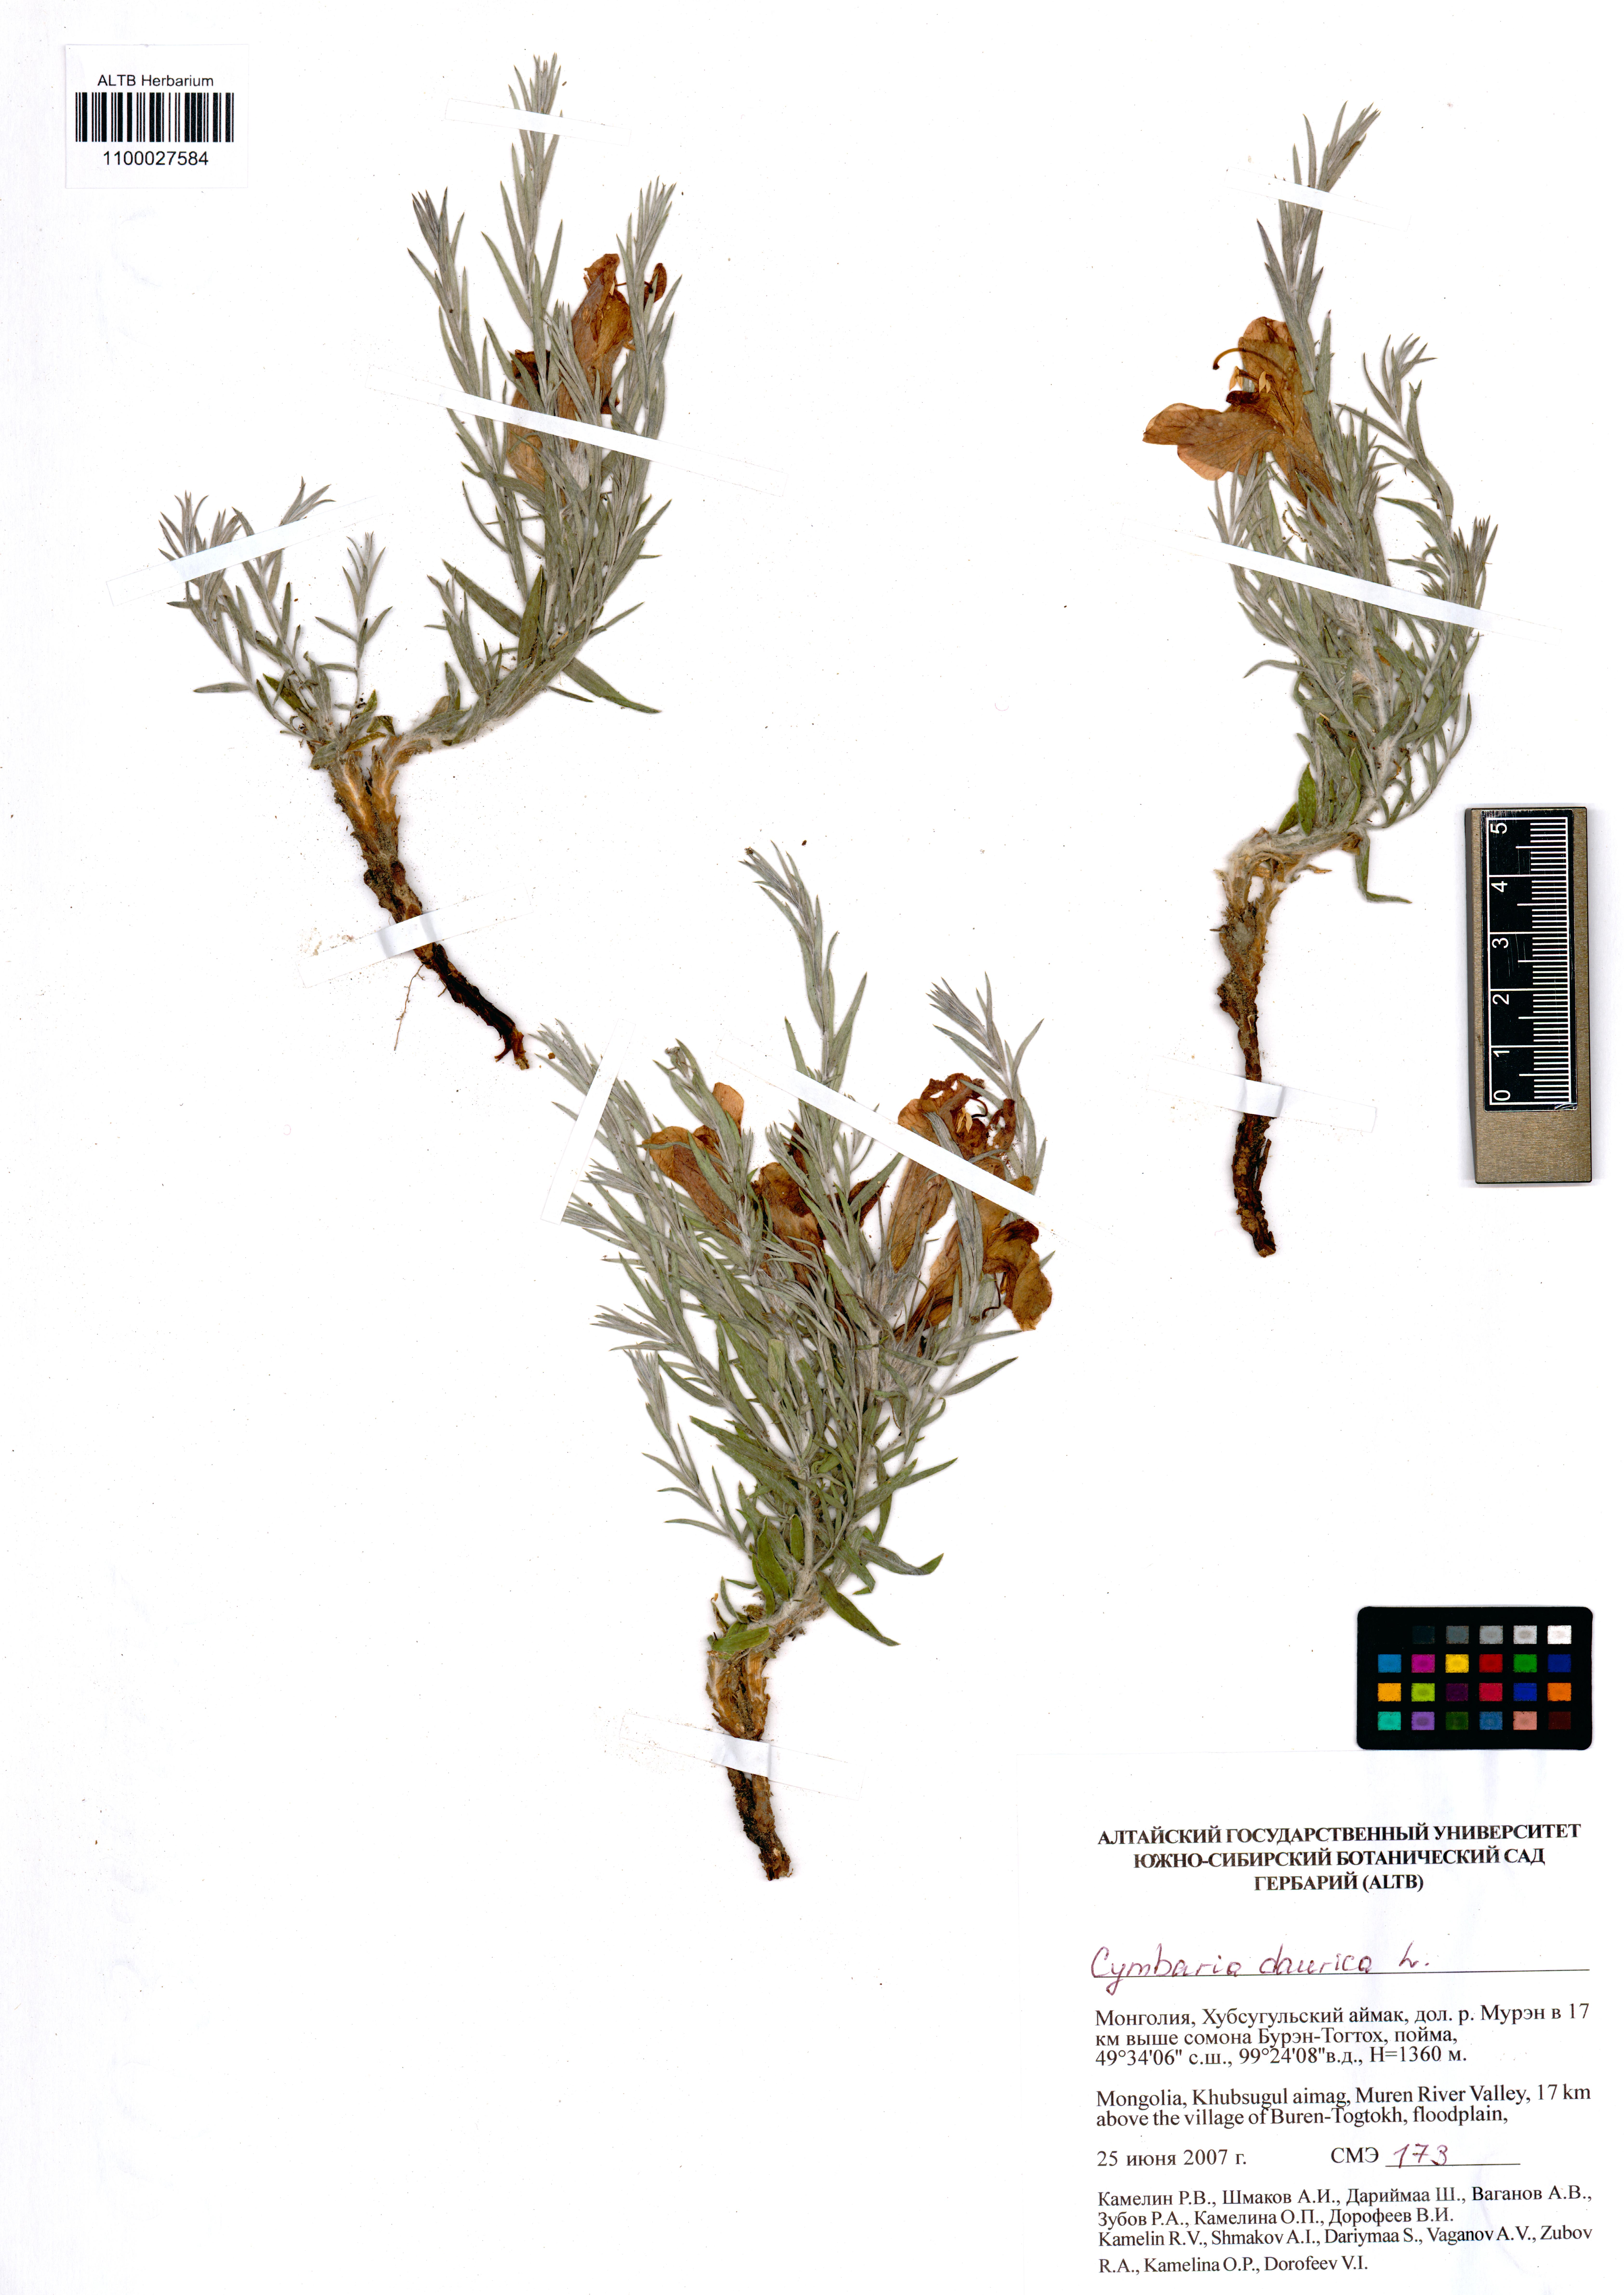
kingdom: Plantae
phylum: Tracheophyta
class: Magnoliopsida
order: Lamiales
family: Orobanchaceae
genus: Cymbaria
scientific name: Cymbaria daurica
